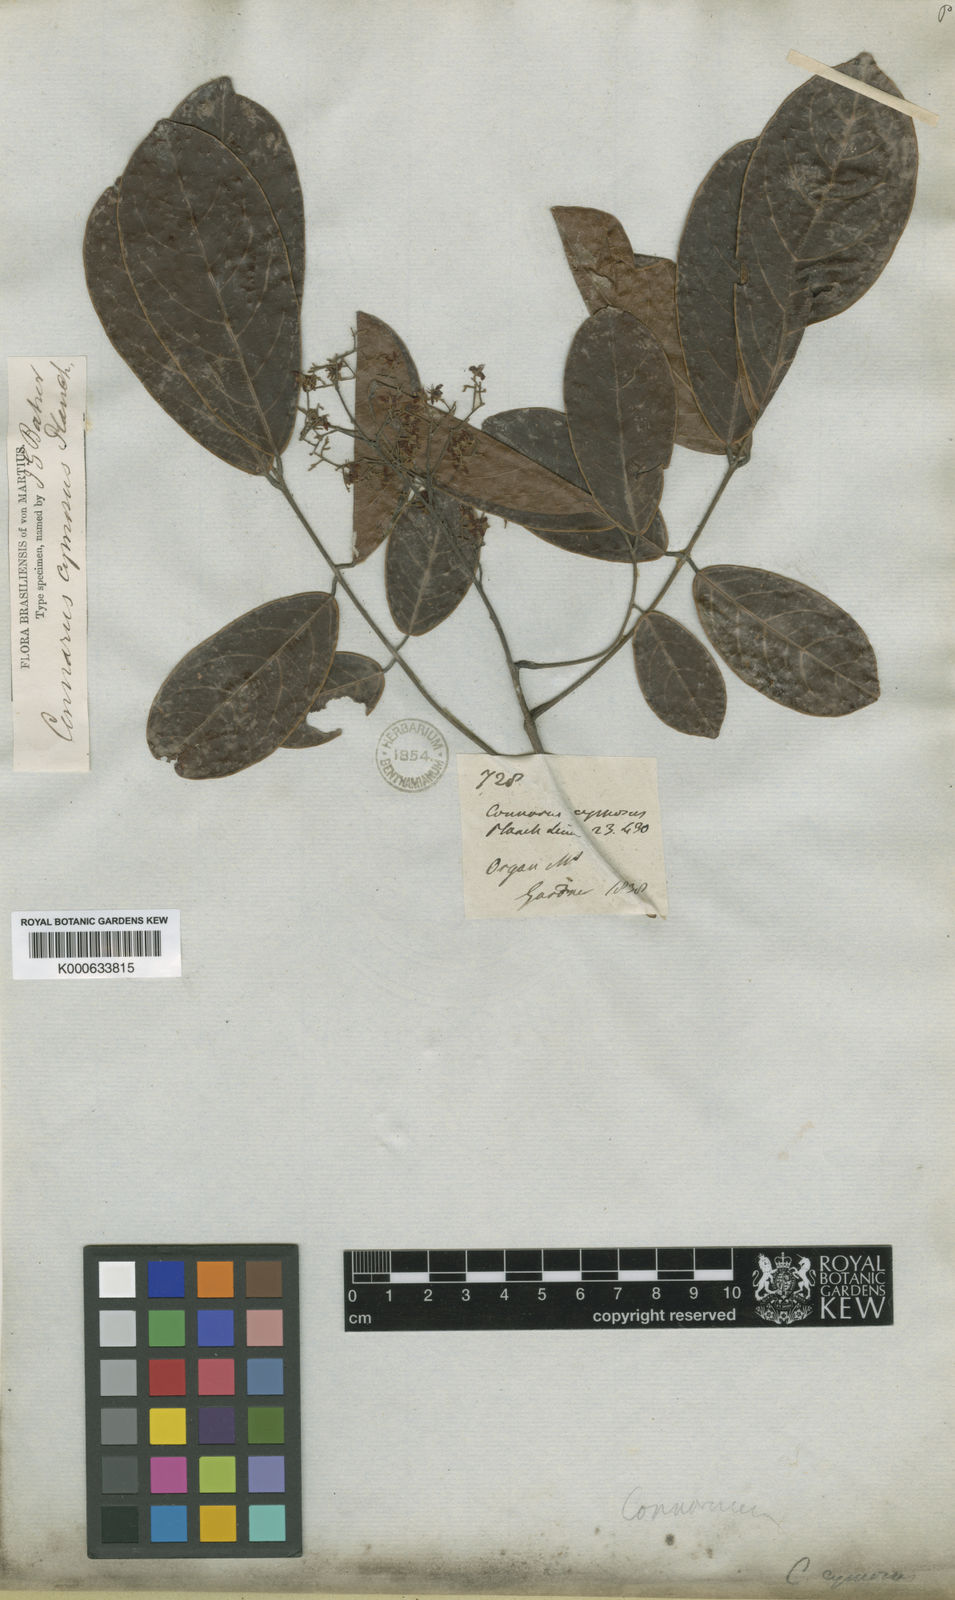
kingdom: Plantae
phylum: Tracheophyta
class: Magnoliopsida
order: Oxalidales
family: Connaraceae
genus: Connarus
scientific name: Connarus rostratus
